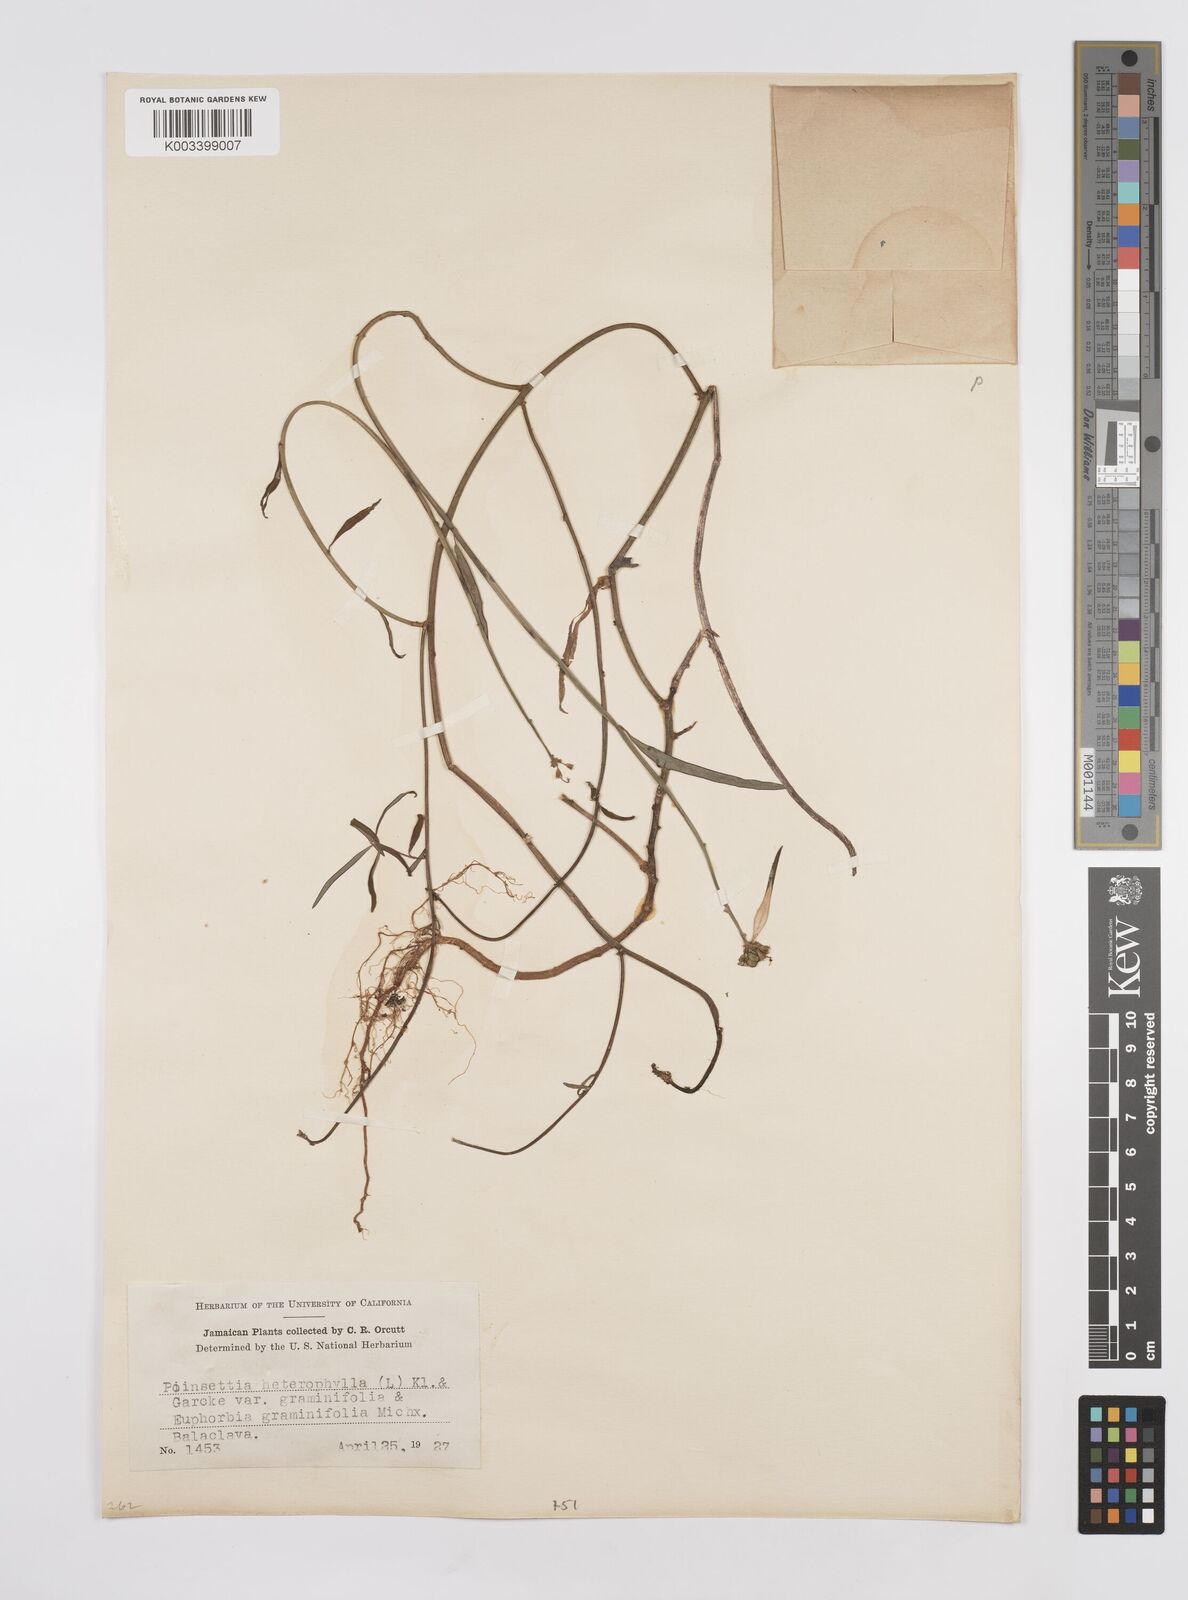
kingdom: Plantae
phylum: Tracheophyta
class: Magnoliopsida
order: Malpighiales
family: Euphorbiaceae
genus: Euphorbia
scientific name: Euphorbia heterophylla
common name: Mexican fireplant
